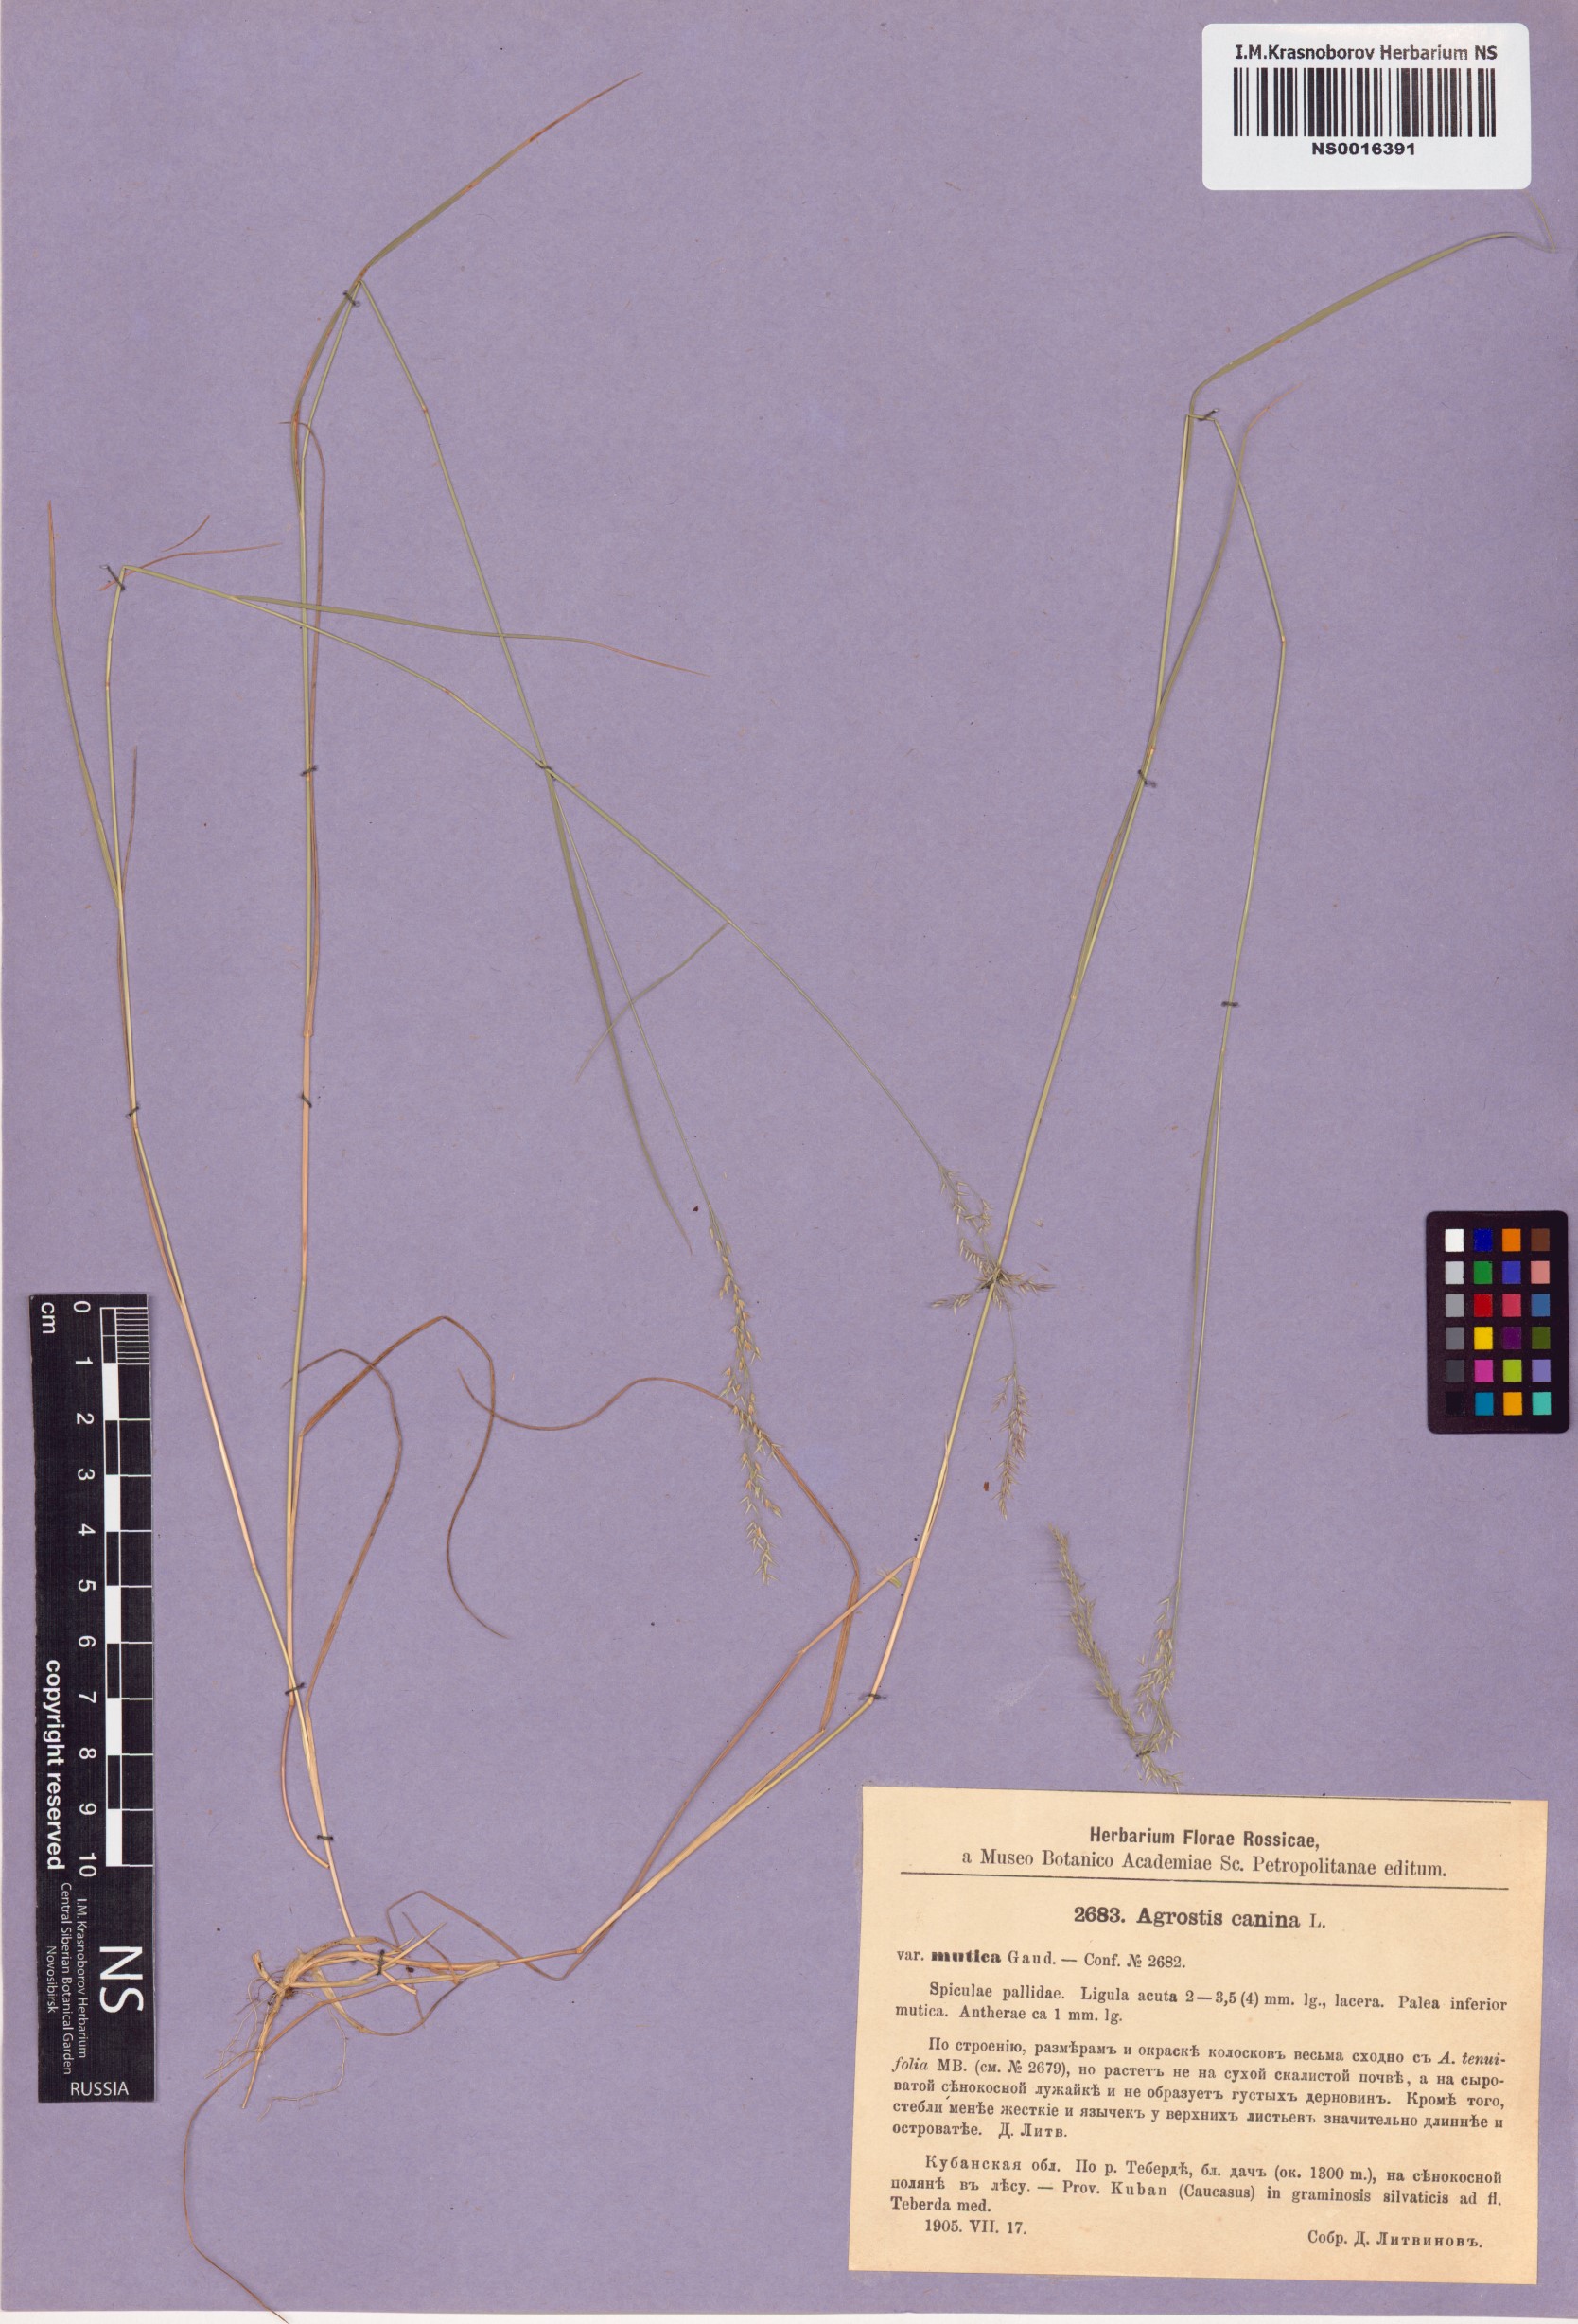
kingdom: Plantae
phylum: Tracheophyta
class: Liliopsida
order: Poales
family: Poaceae
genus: Agrostis
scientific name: Agrostis canina
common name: Velvet bent
